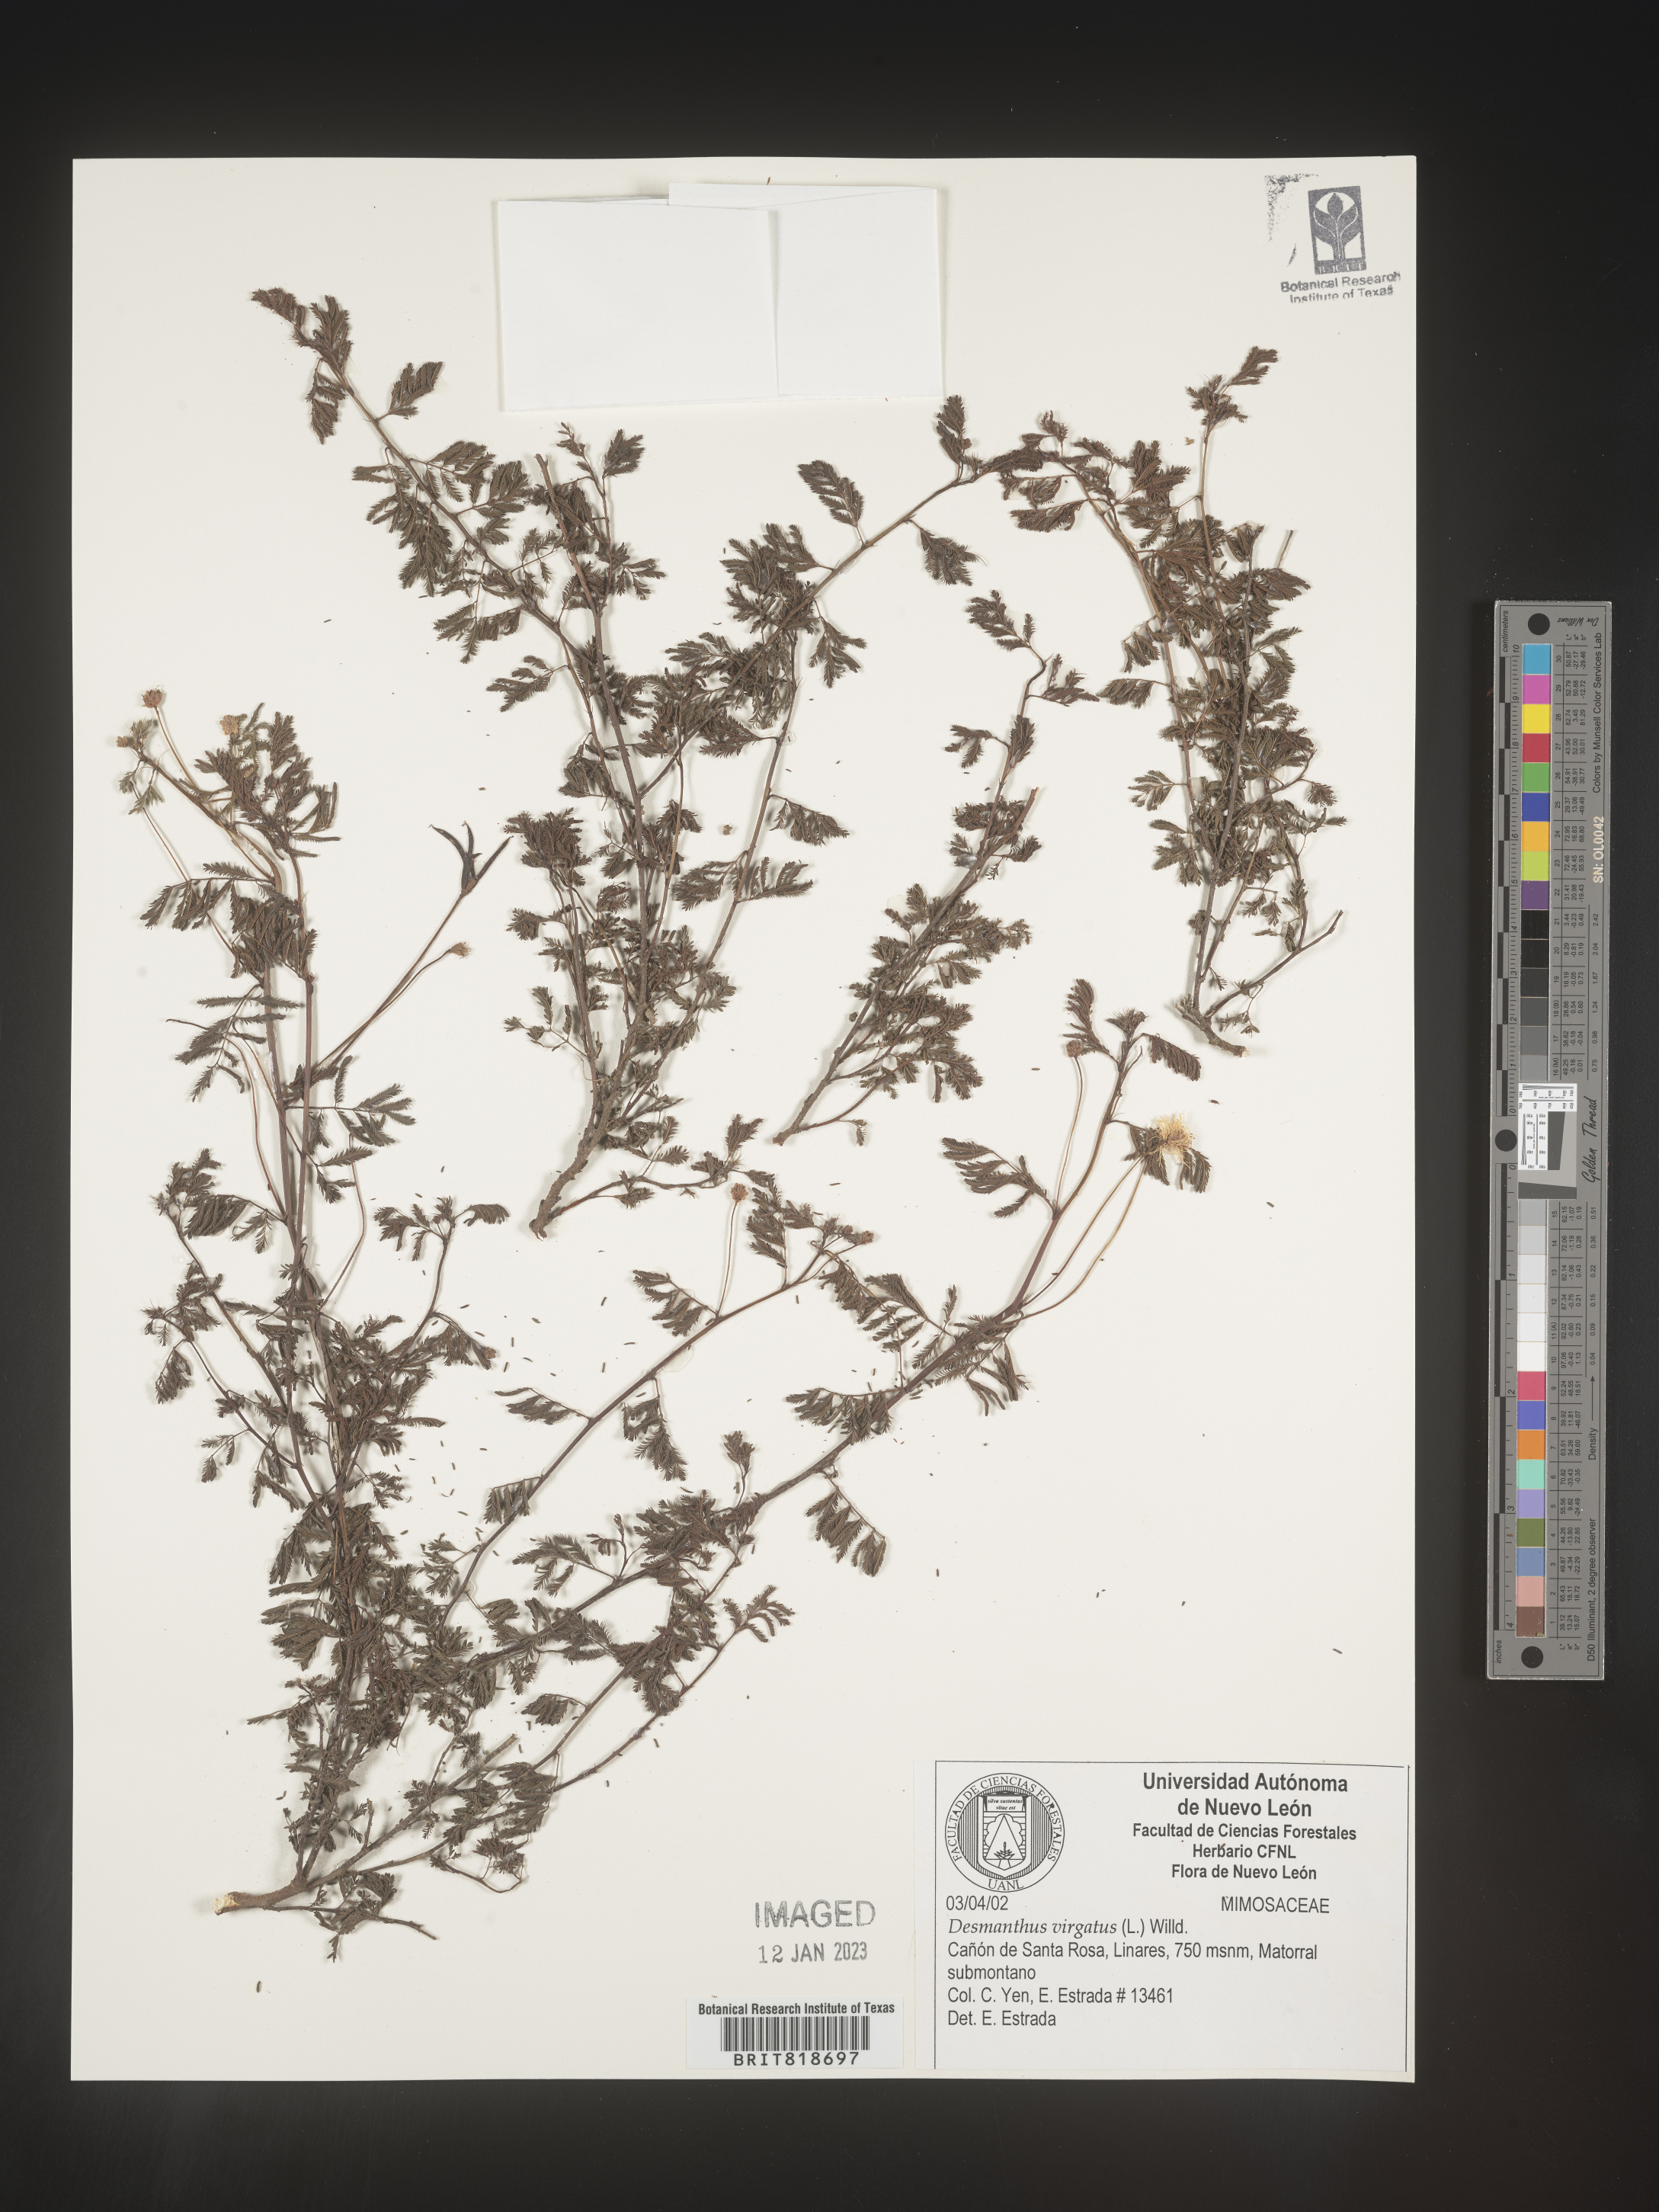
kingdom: Plantae
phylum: Tracheophyta
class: Magnoliopsida
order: Fabales
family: Fabaceae
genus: Desmanthus
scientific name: Desmanthus
